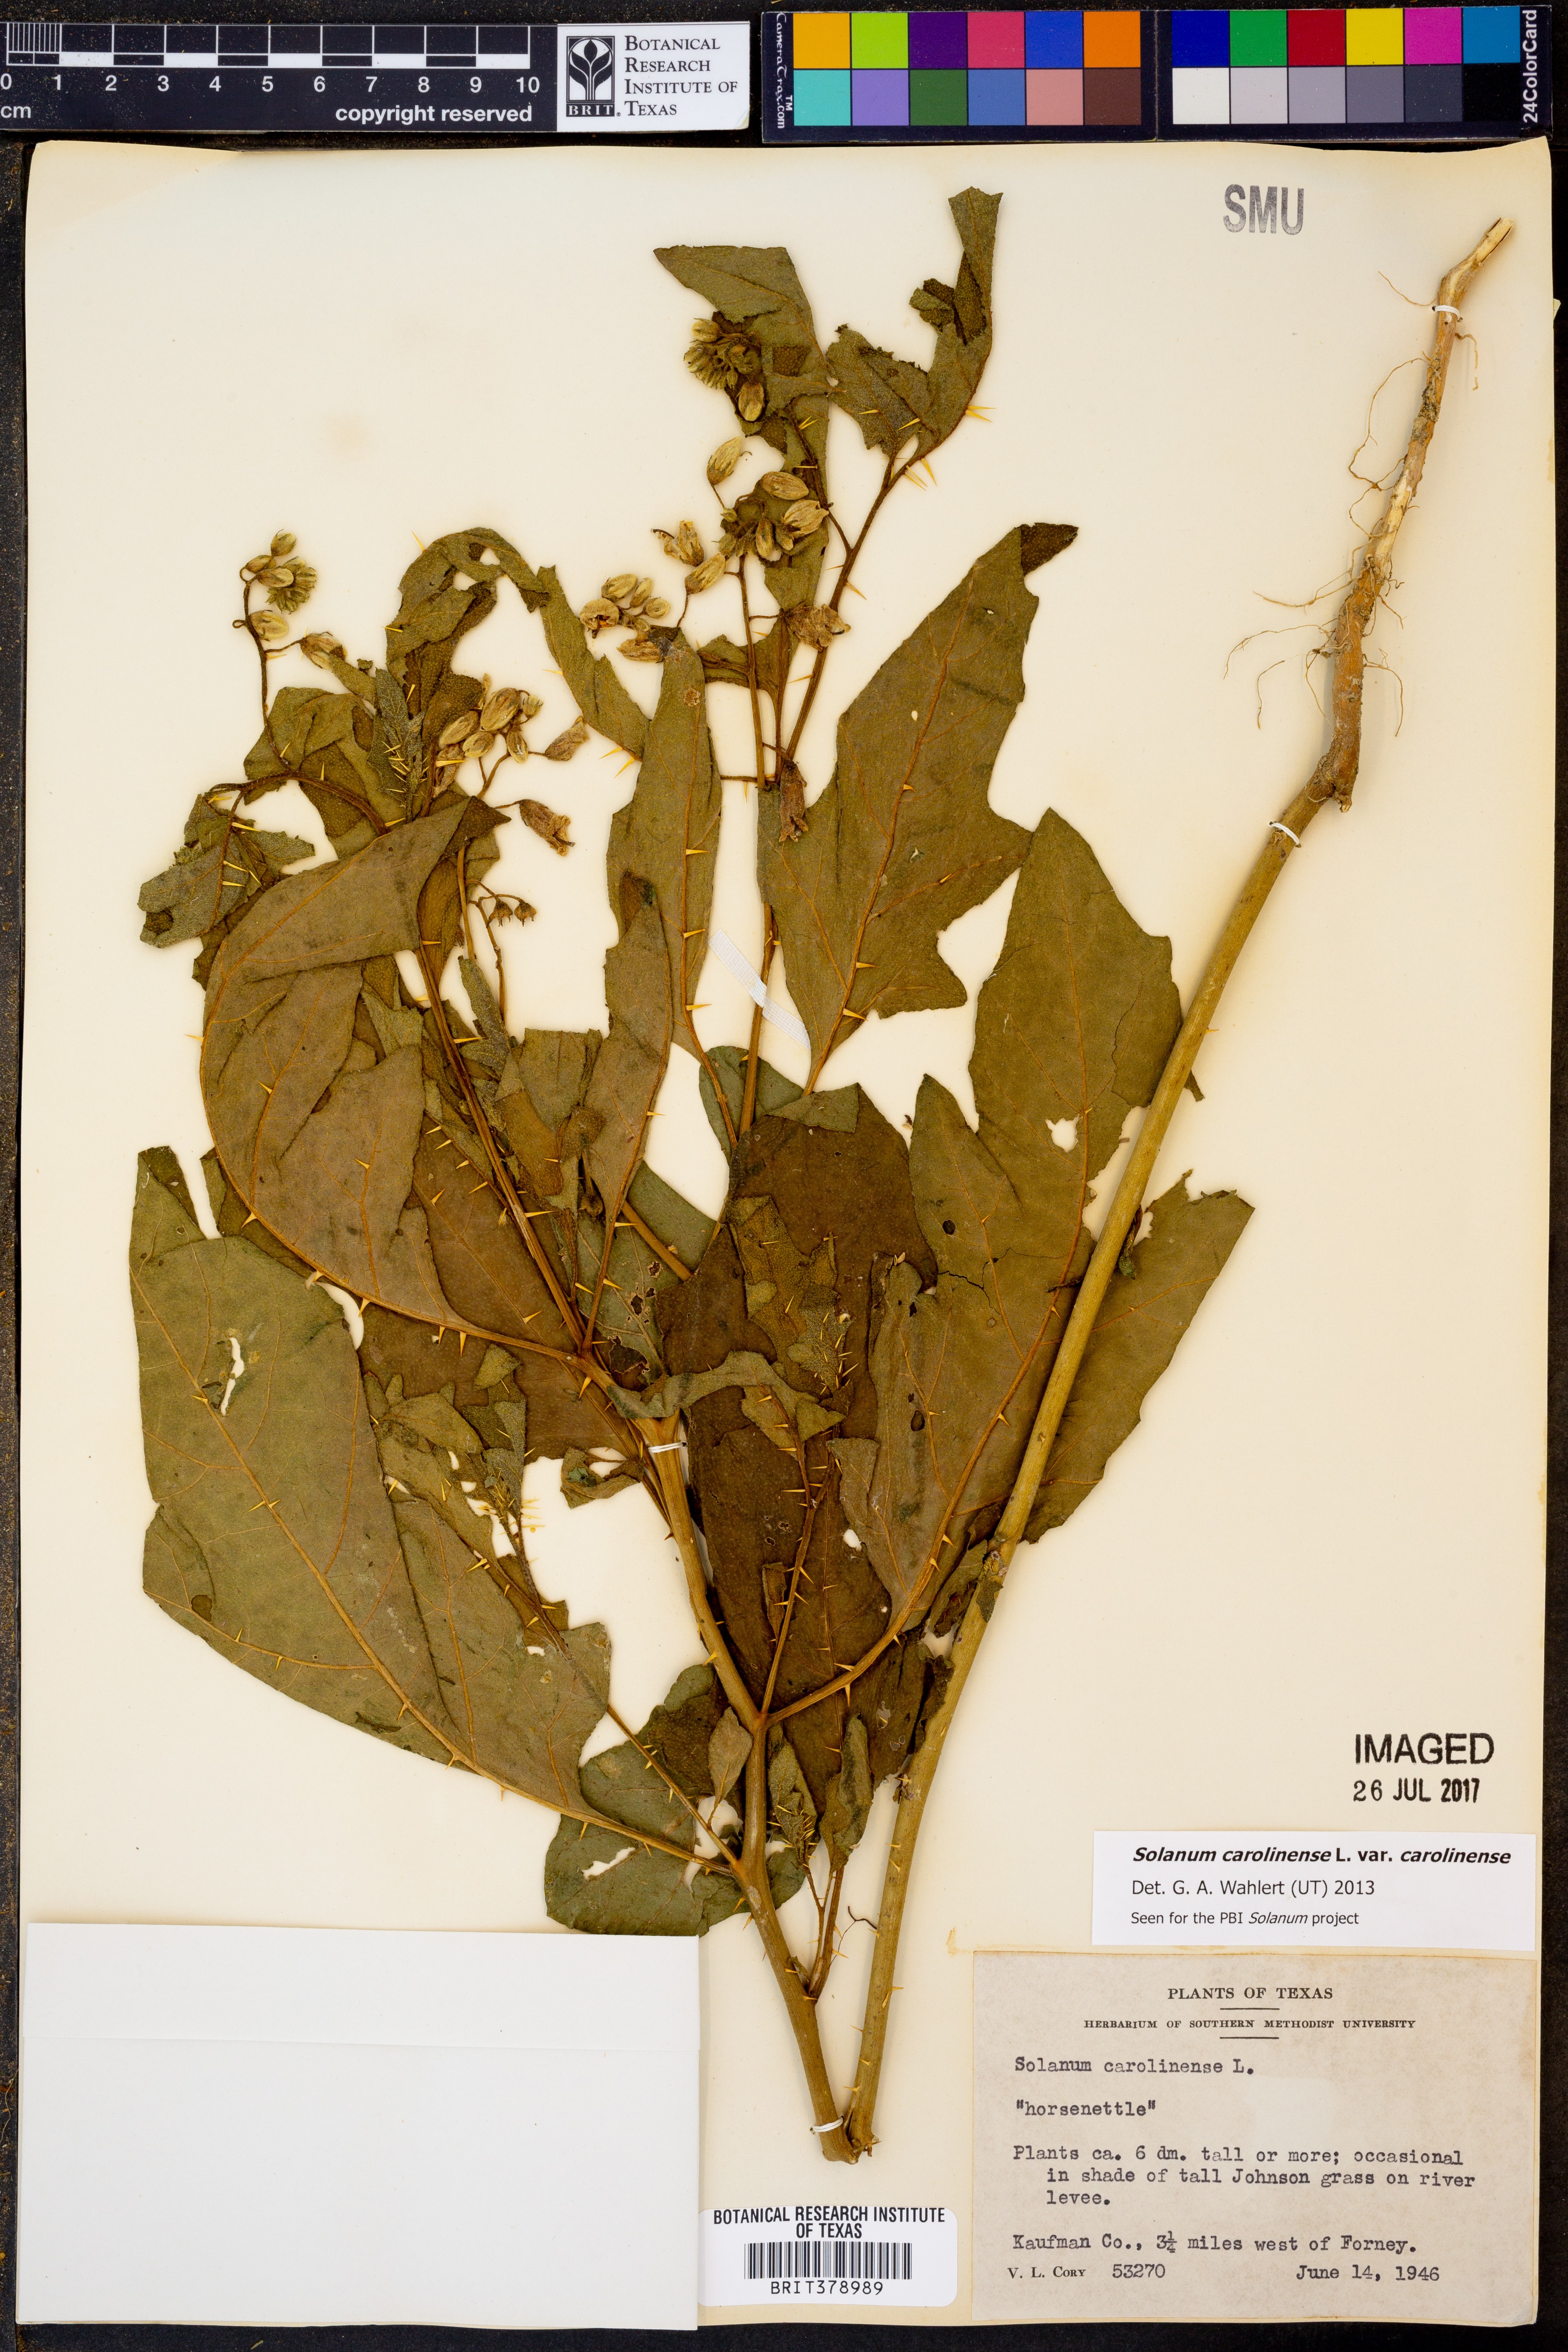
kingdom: Plantae
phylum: Tracheophyta
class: Magnoliopsida
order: Solanales
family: Solanaceae
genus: Solanum
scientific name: Solanum carolinense
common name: Horse-nettle
